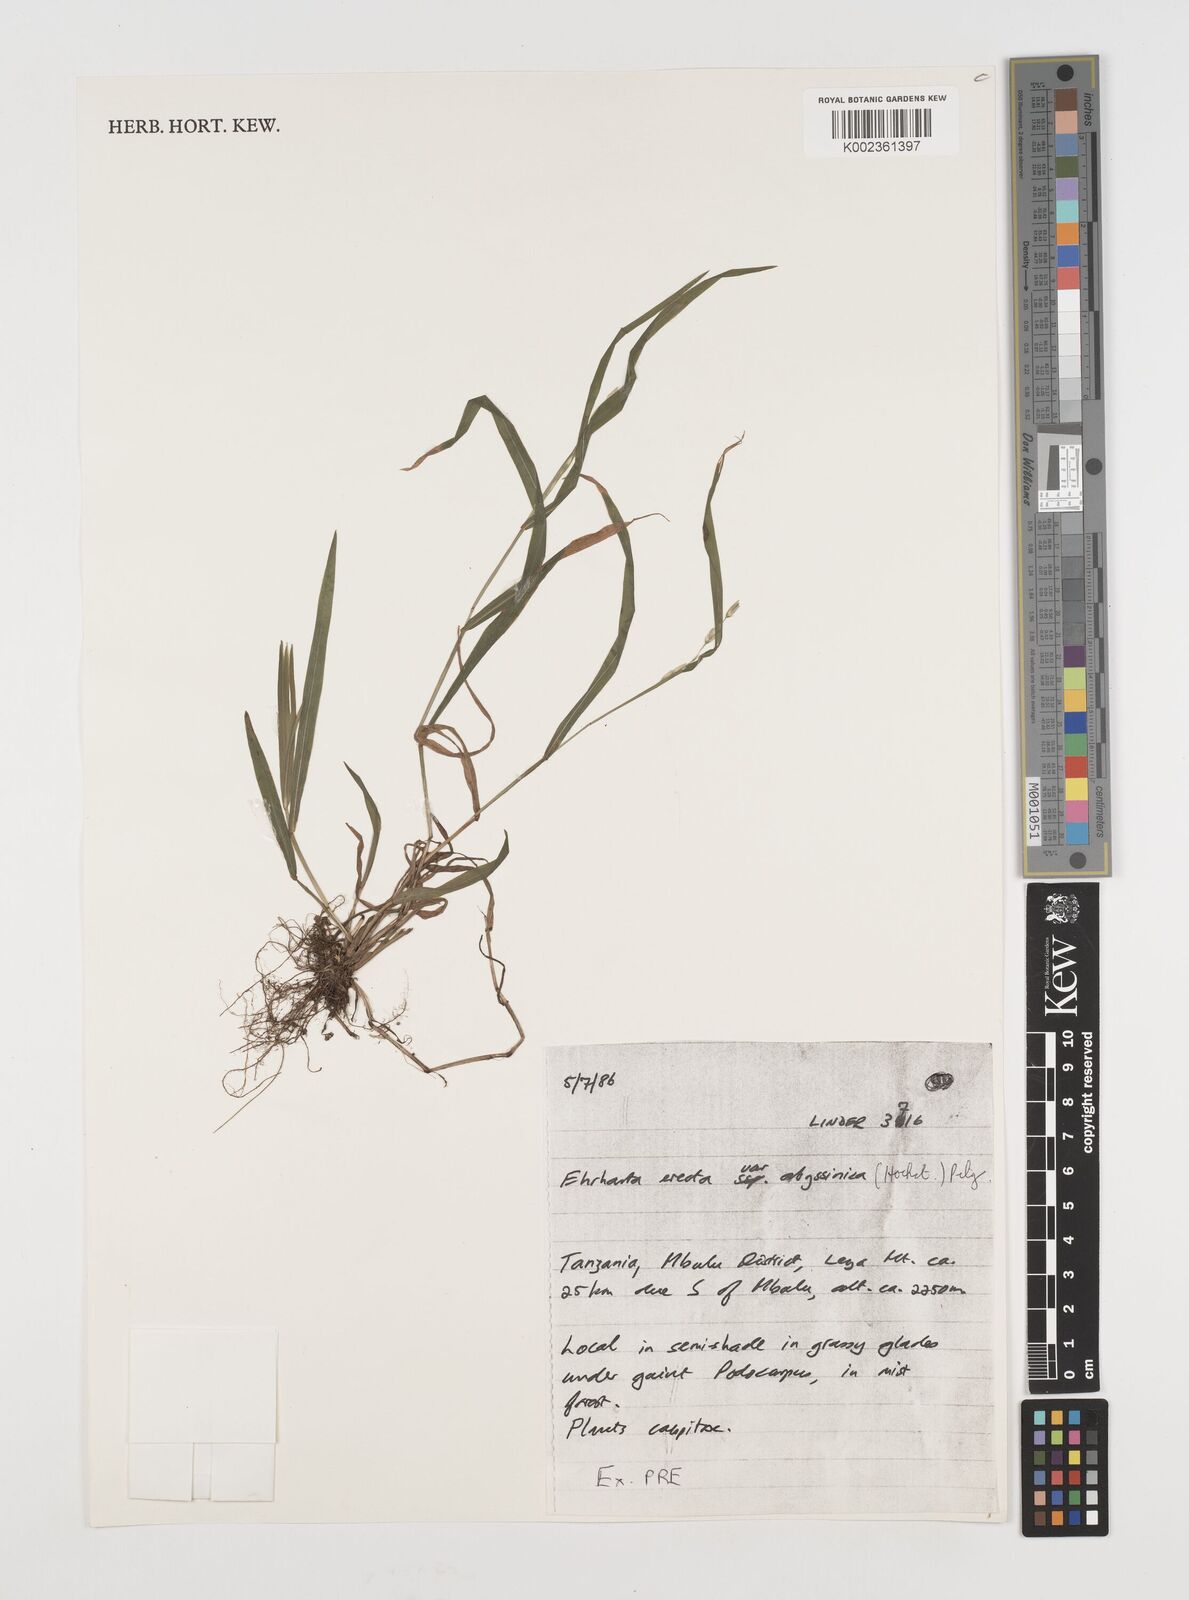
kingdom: Plantae
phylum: Tracheophyta
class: Liliopsida
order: Poales
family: Poaceae
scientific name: Poaceae
